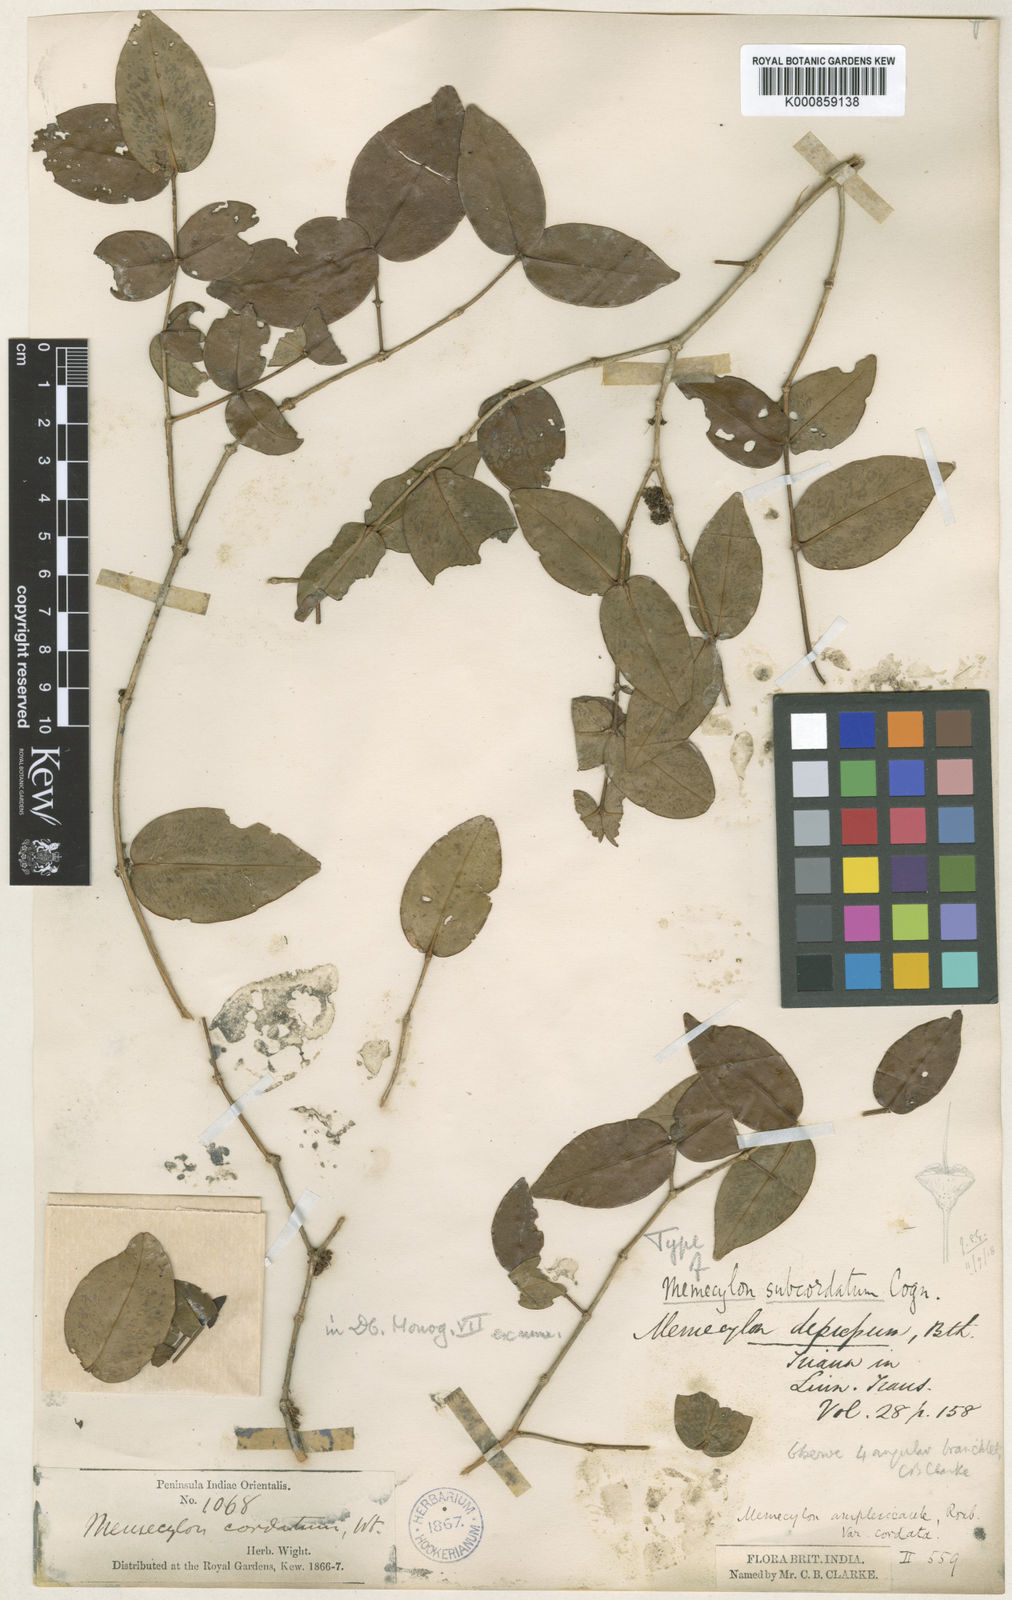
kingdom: Plantae
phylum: Tracheophyta
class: Magnoliopsida
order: Myrtales
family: Melastomataceae
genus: Memecylon
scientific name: Memecylon subcordatum
